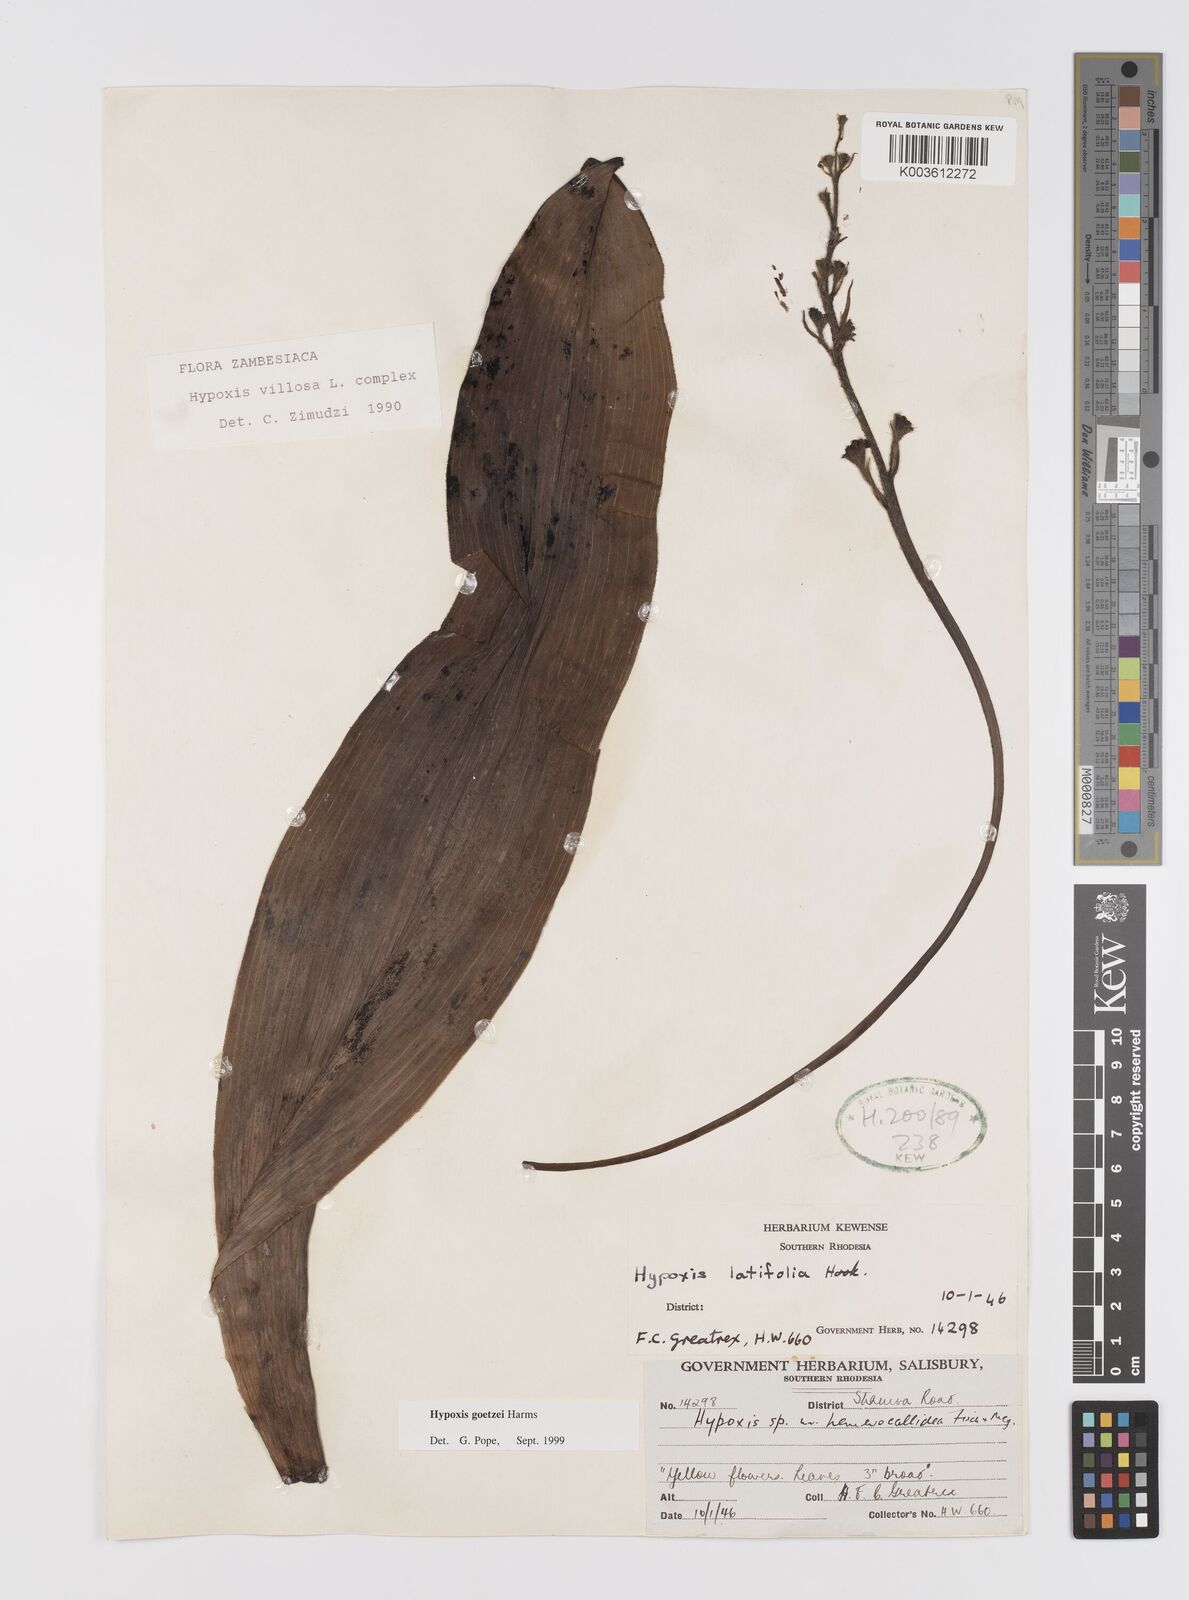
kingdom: Plantae
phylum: Tracheophyta
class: Liliopsida
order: Asparagales
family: Hypoxidaceae
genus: Hypoxis
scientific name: Hypoxis goetzei
